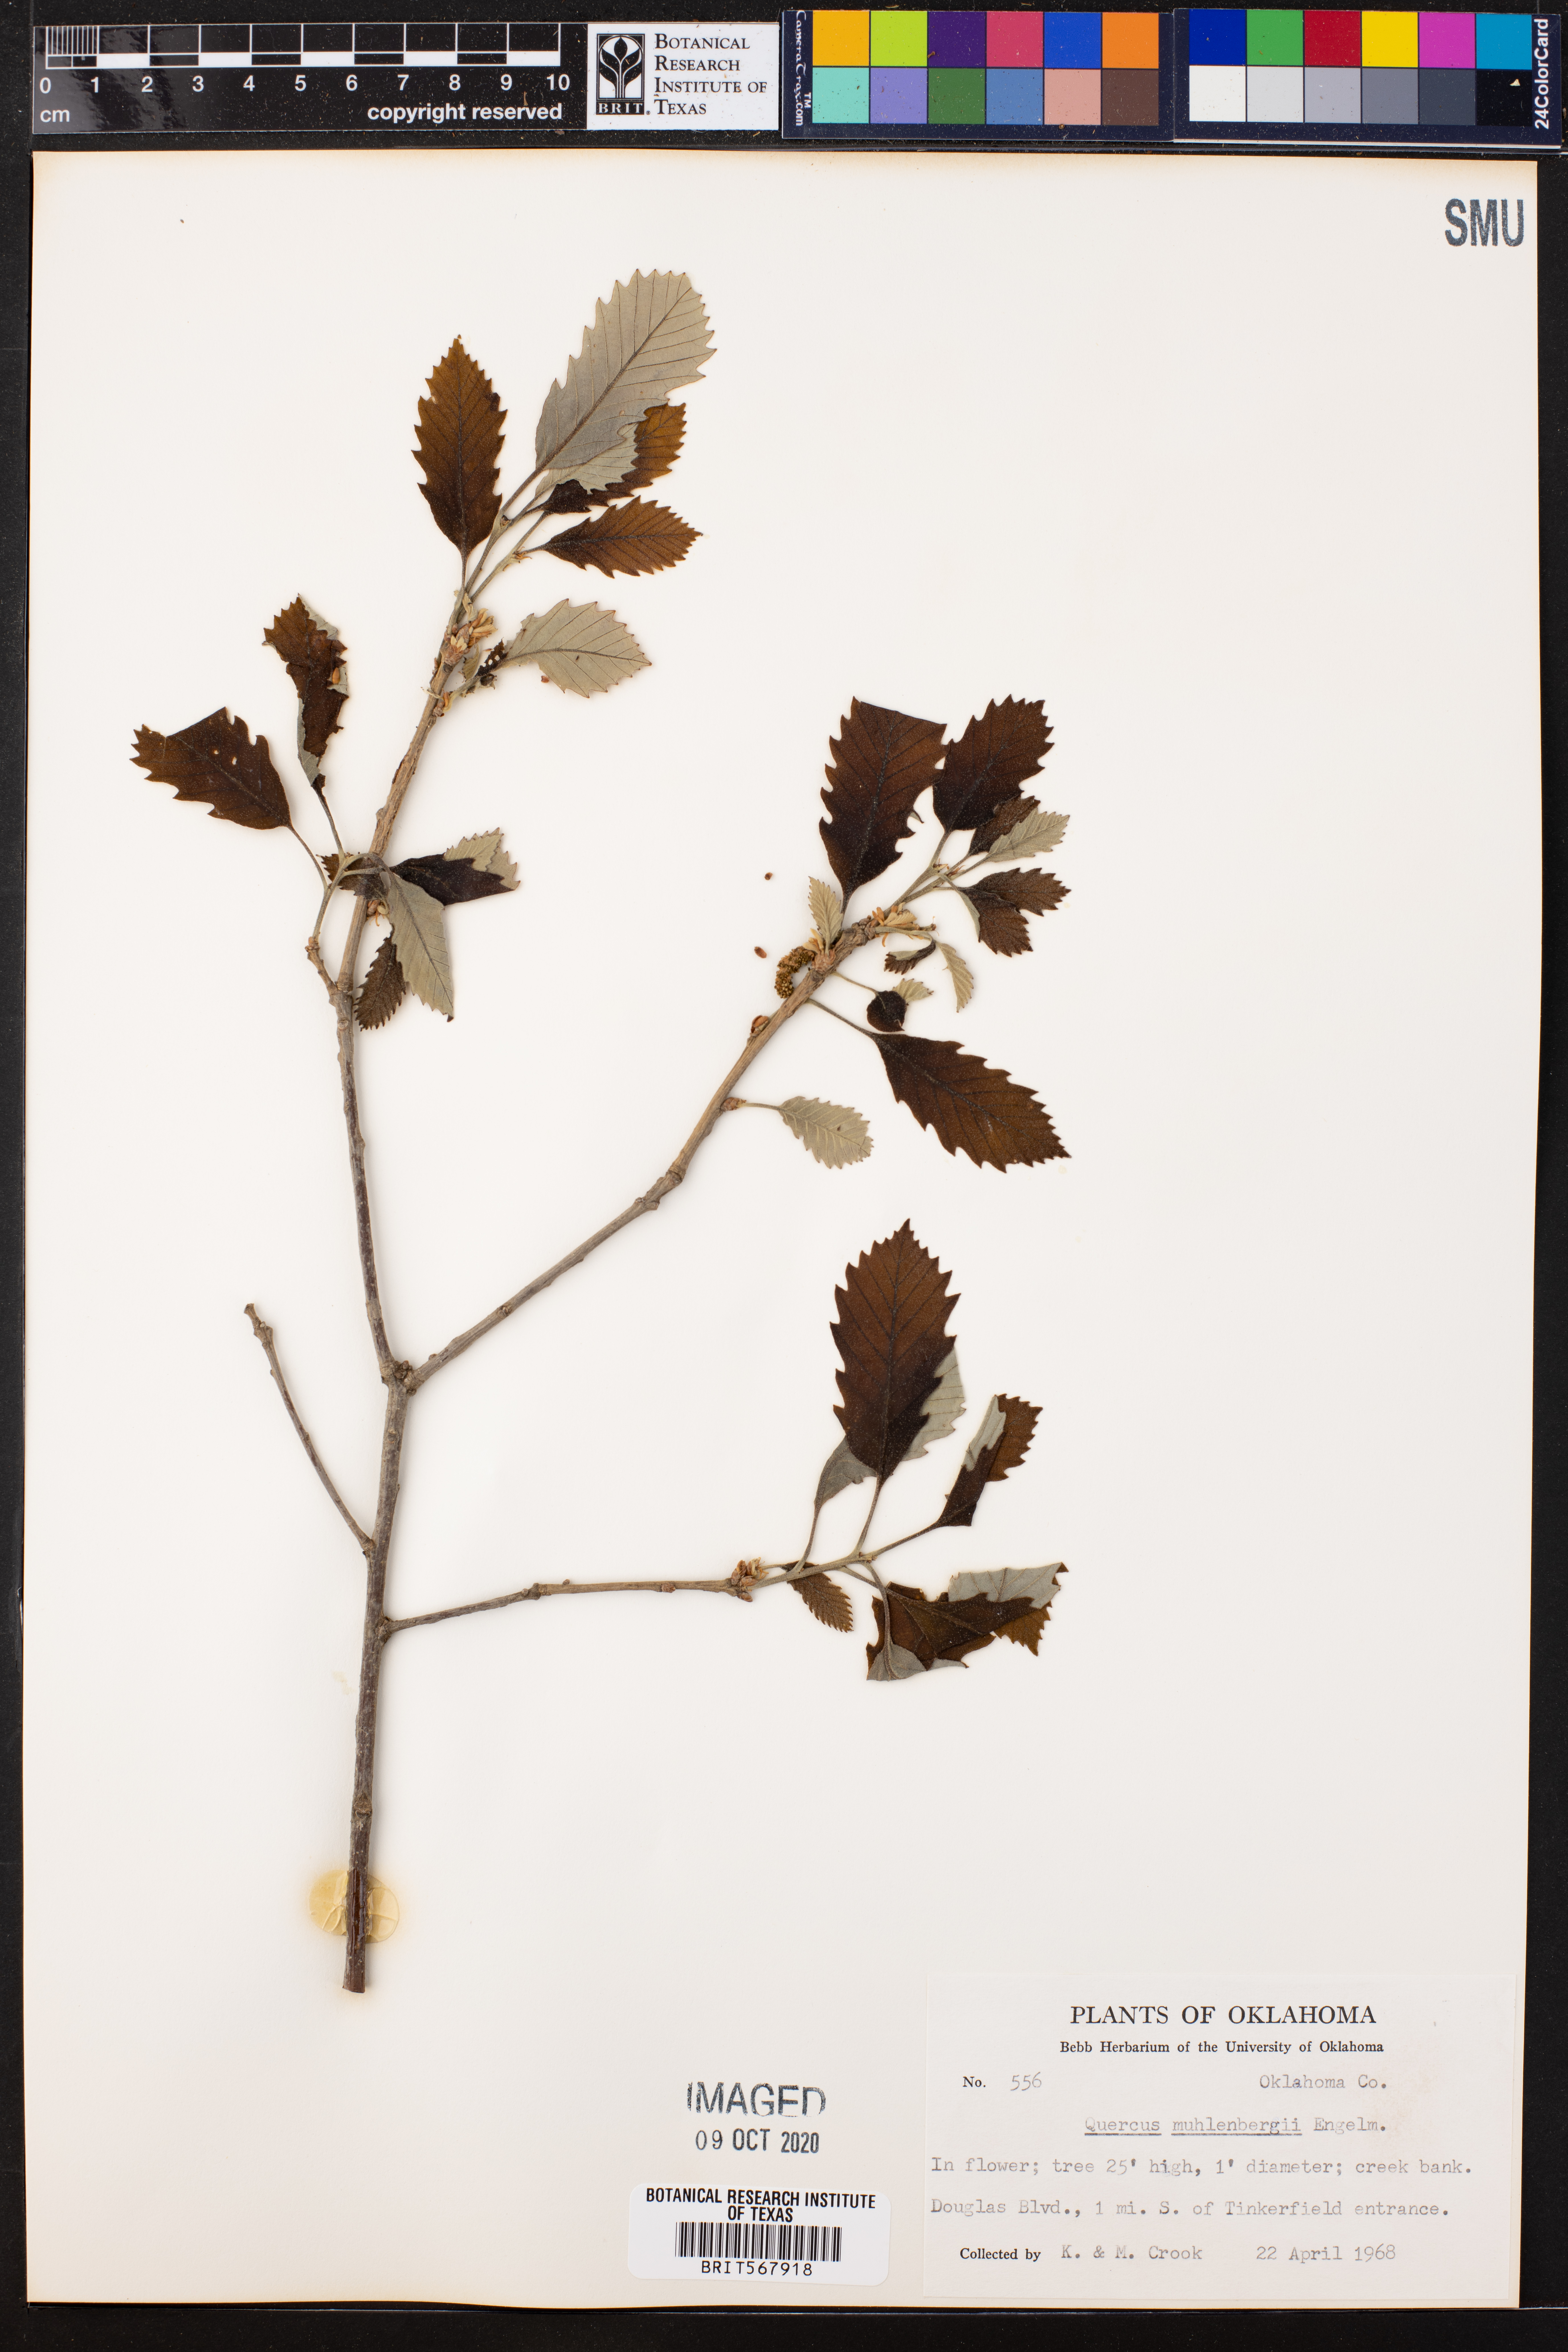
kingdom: Plantae
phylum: Tracheophyta
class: Magnoliopsida
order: Fagales
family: Fagaceae
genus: Quercus
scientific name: Quercus muehlenbergii
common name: Chinkapin oak
